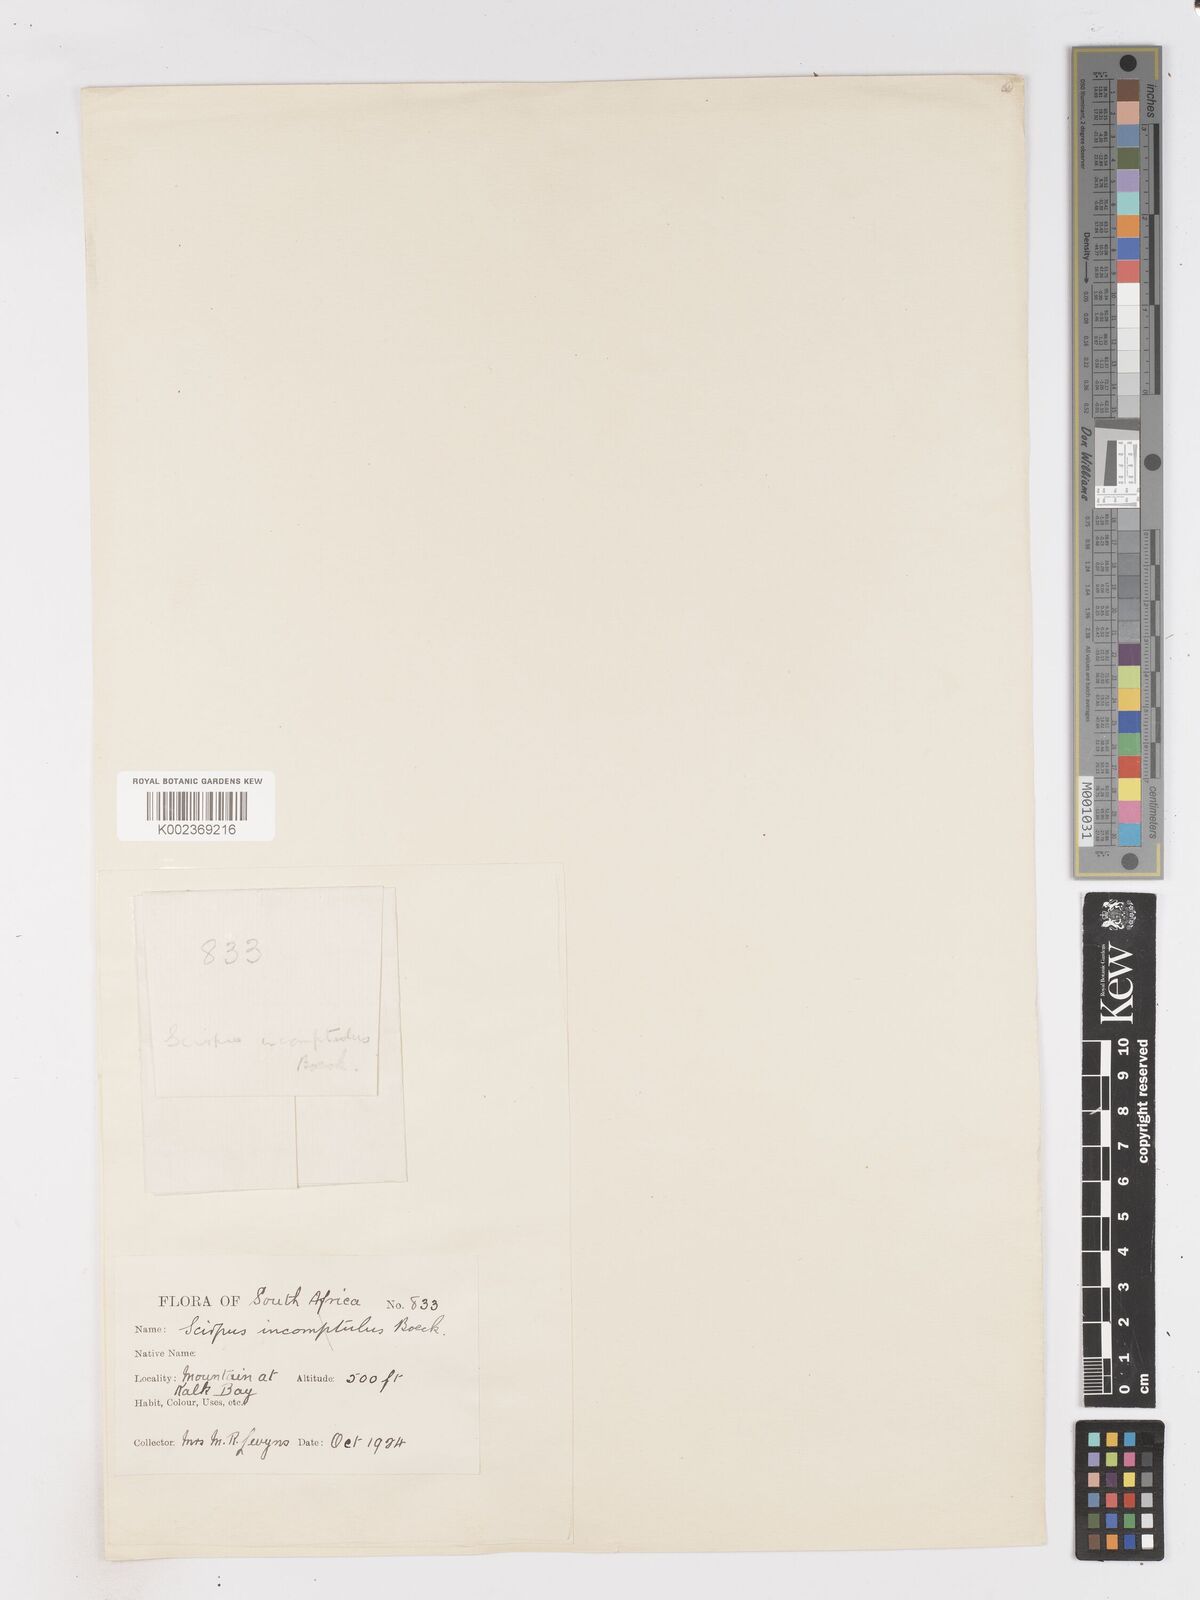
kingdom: Plantae
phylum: Tracheophyta
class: Liliopsida
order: Poales
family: Cyperaceae
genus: Ficinia
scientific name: Ficinia incomtula
